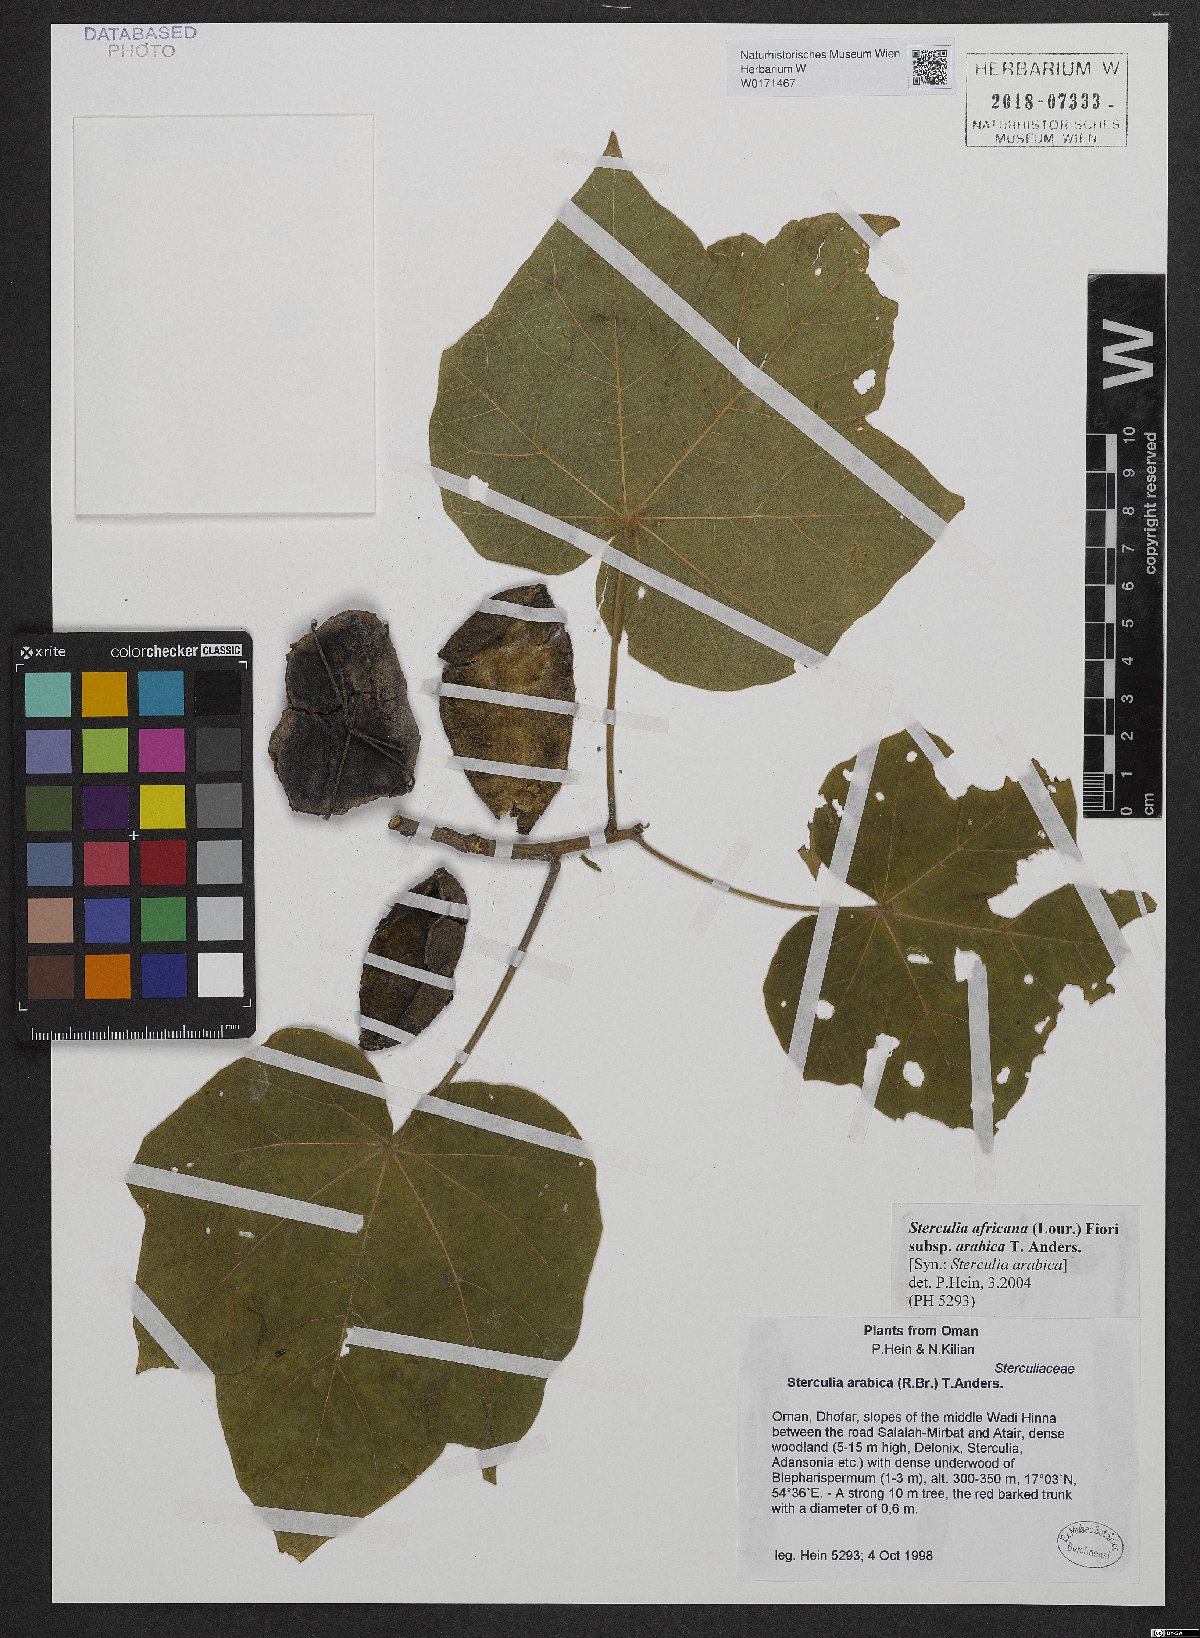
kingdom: Plantae
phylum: Tracheophyta
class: Magnoliopsida
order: Malvales
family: Malvaceae
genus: Sterculia
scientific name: Sterculia africana
